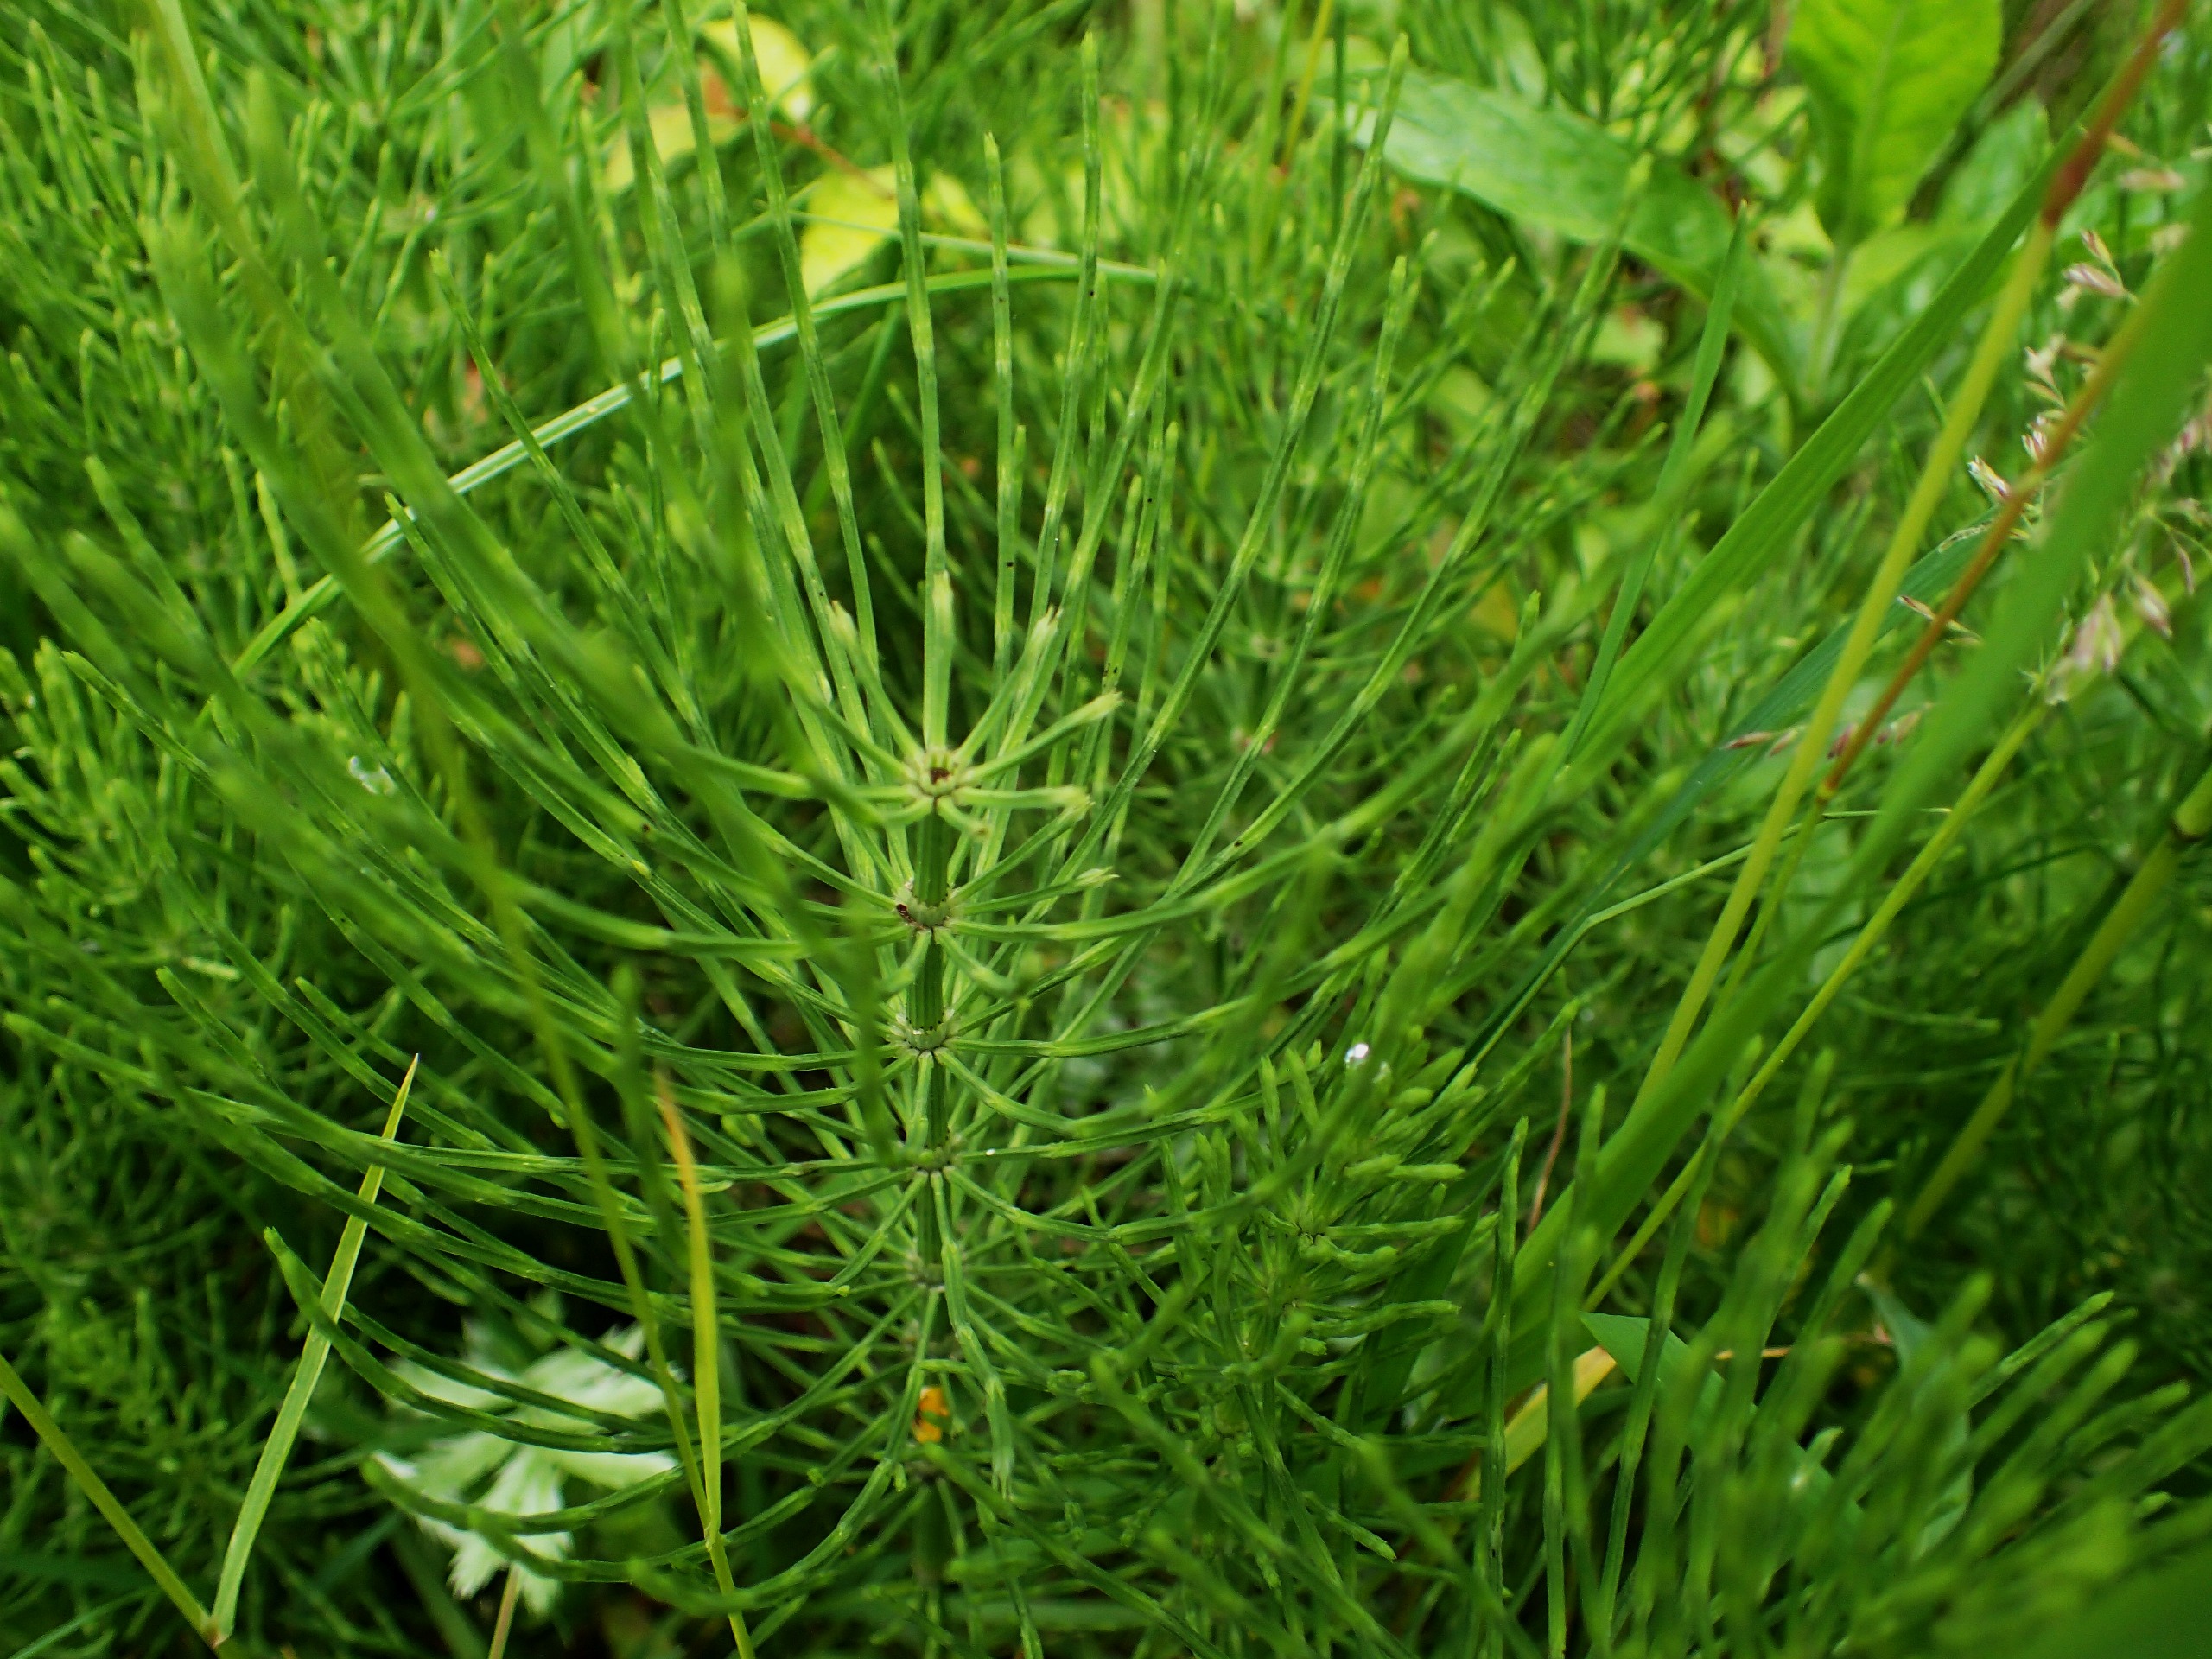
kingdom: Plantae
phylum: Tracheophyta
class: Polypodiopsida
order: Equisetales
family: Equisetaceae
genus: Equisetum
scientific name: Equisetum arvense
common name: Ager-padderok
